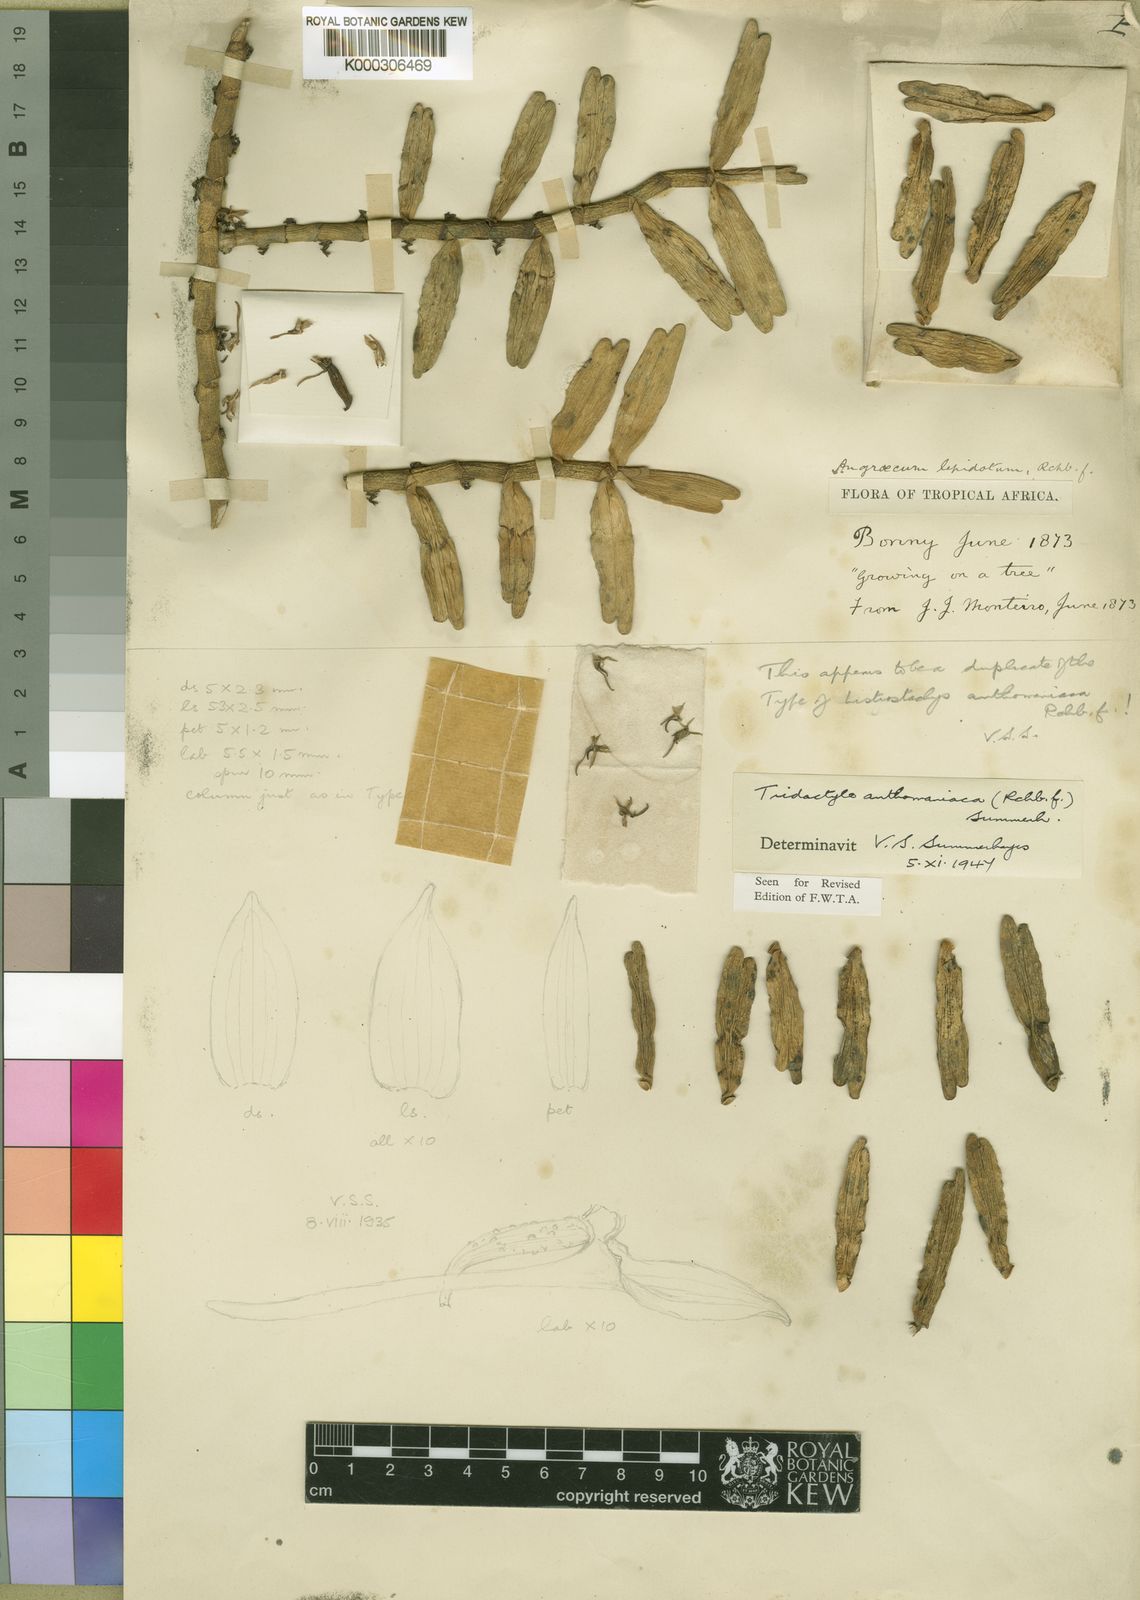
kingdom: Plantae
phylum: Tracheophyta
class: Liliopsida
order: Asparagales
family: Orchidaceae
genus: Tridactyle
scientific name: Tridactyle anthomaniaca
